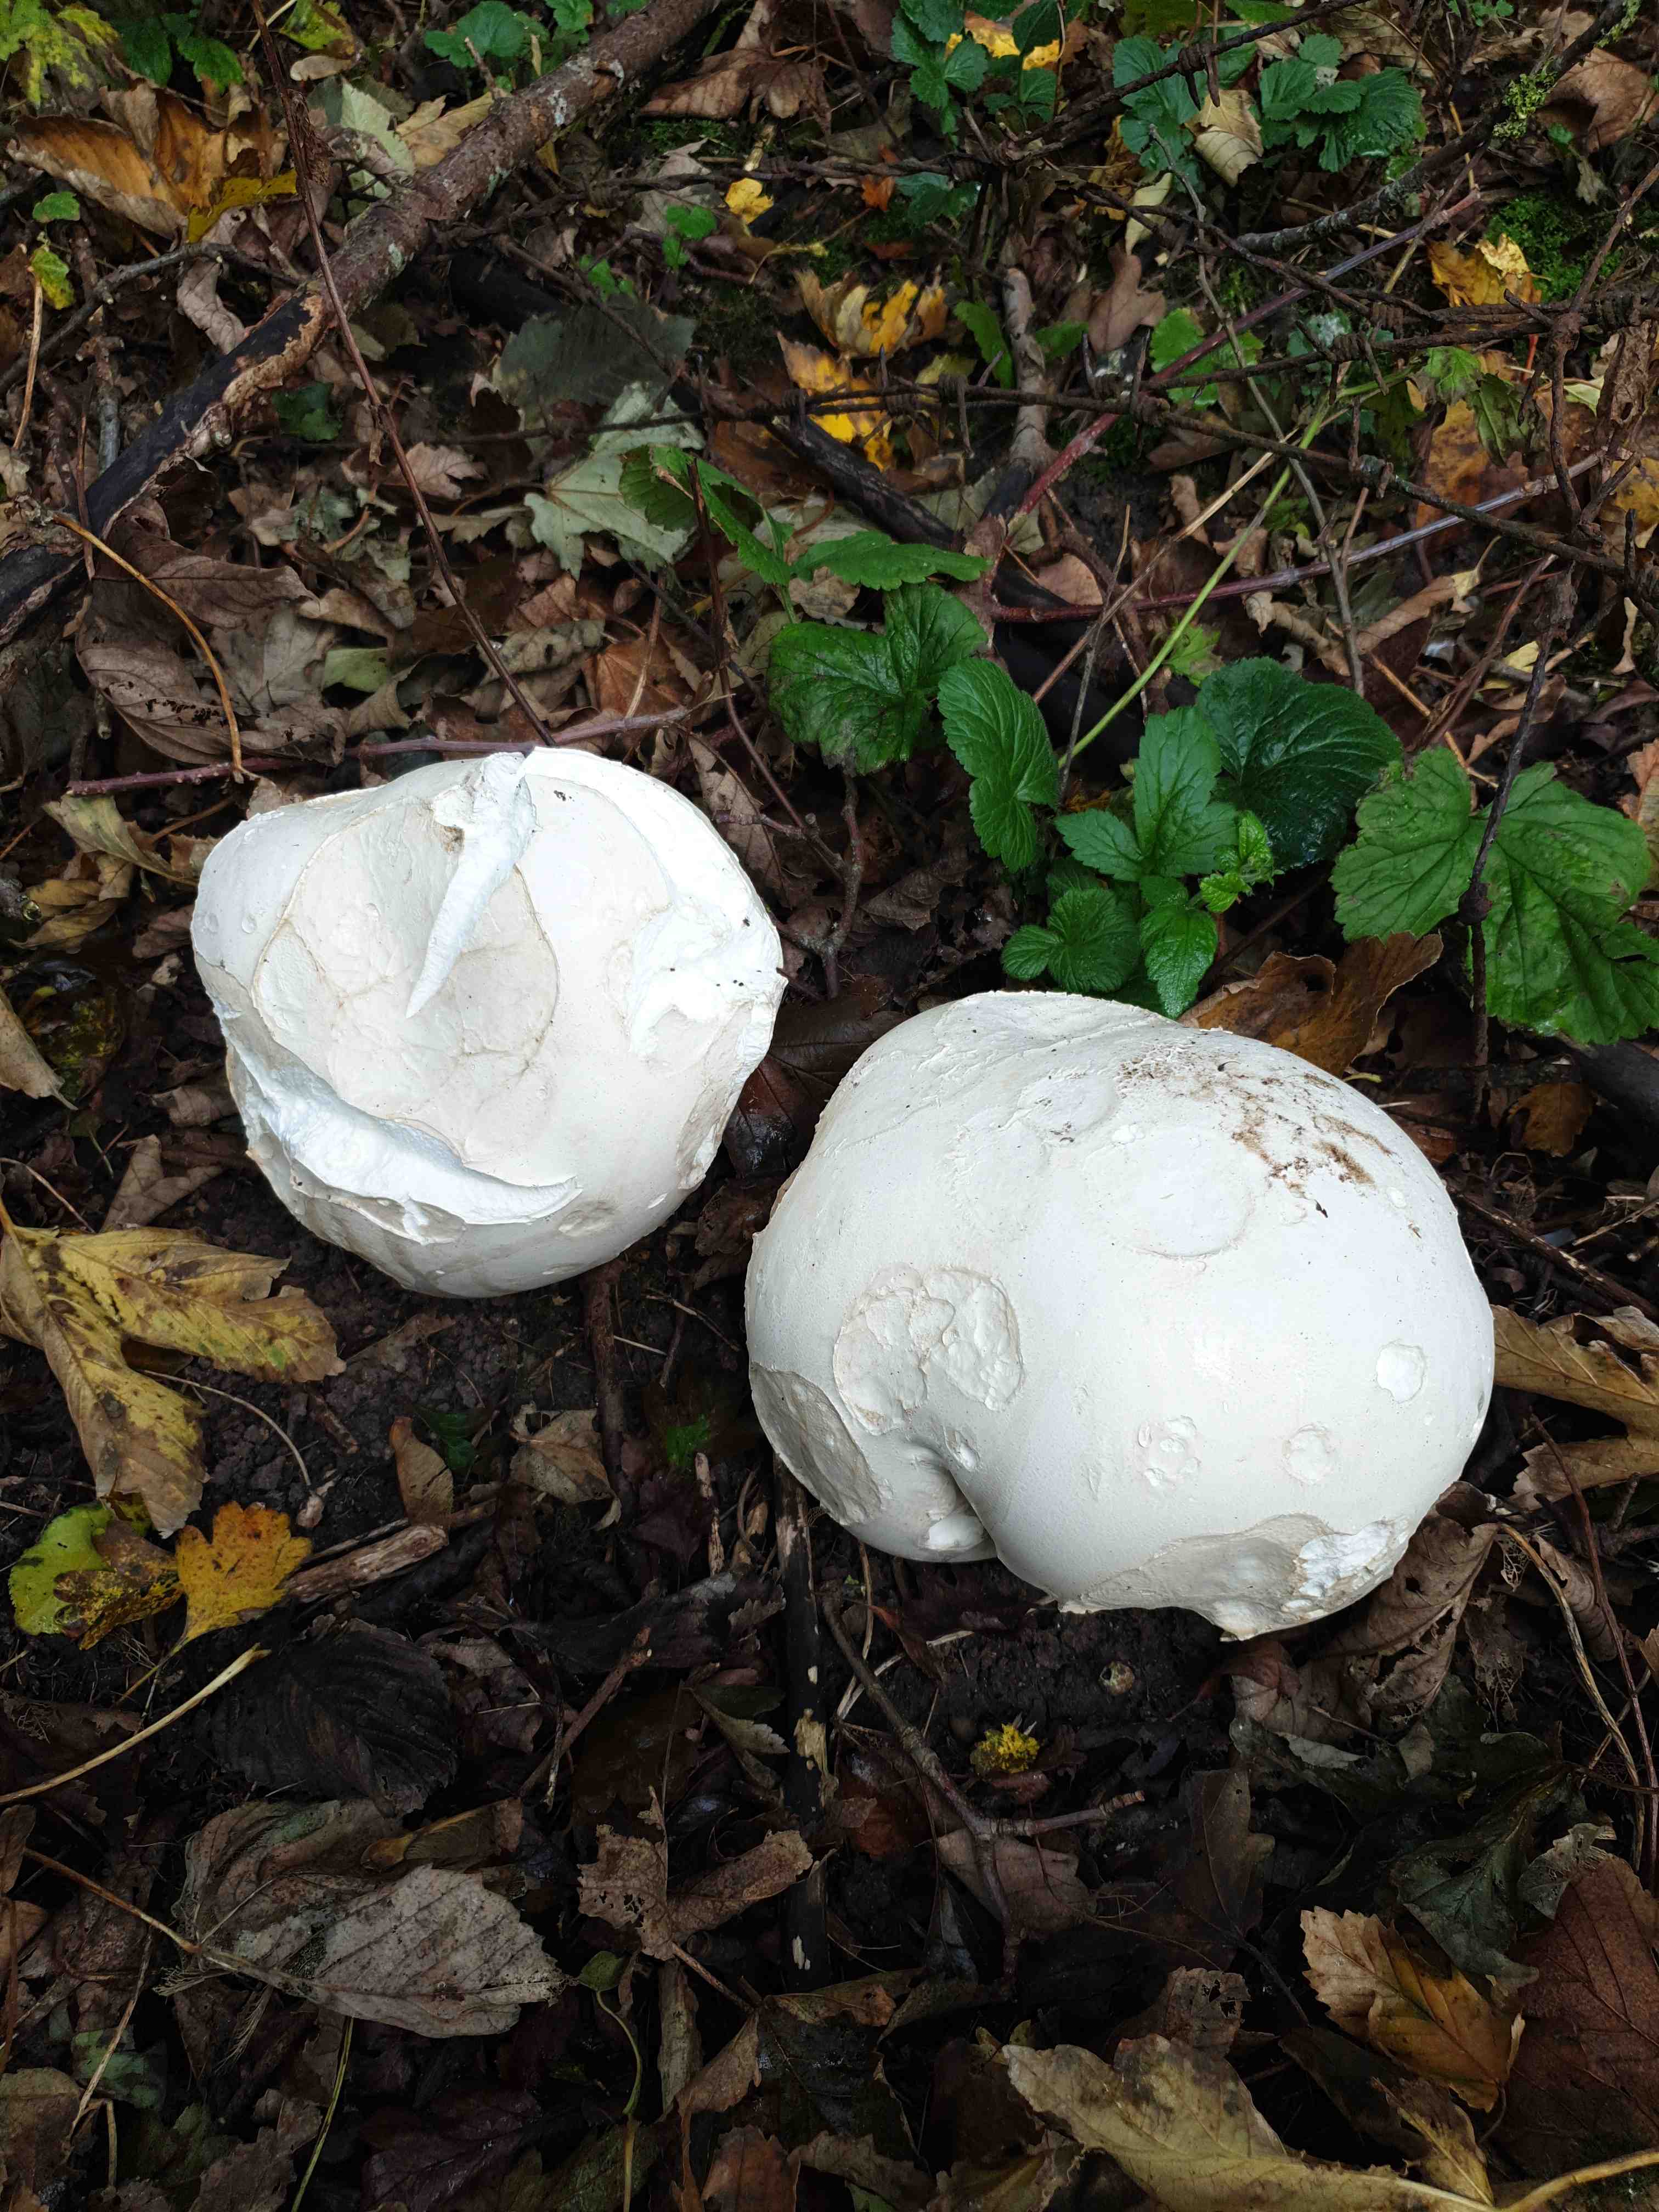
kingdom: Fungi
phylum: Basidiomycota
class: Agaricomycetes
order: Agaricales
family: Lycoperdaceae
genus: Calvatia
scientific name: Calvatia gigantea
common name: kæmpestøvbold
